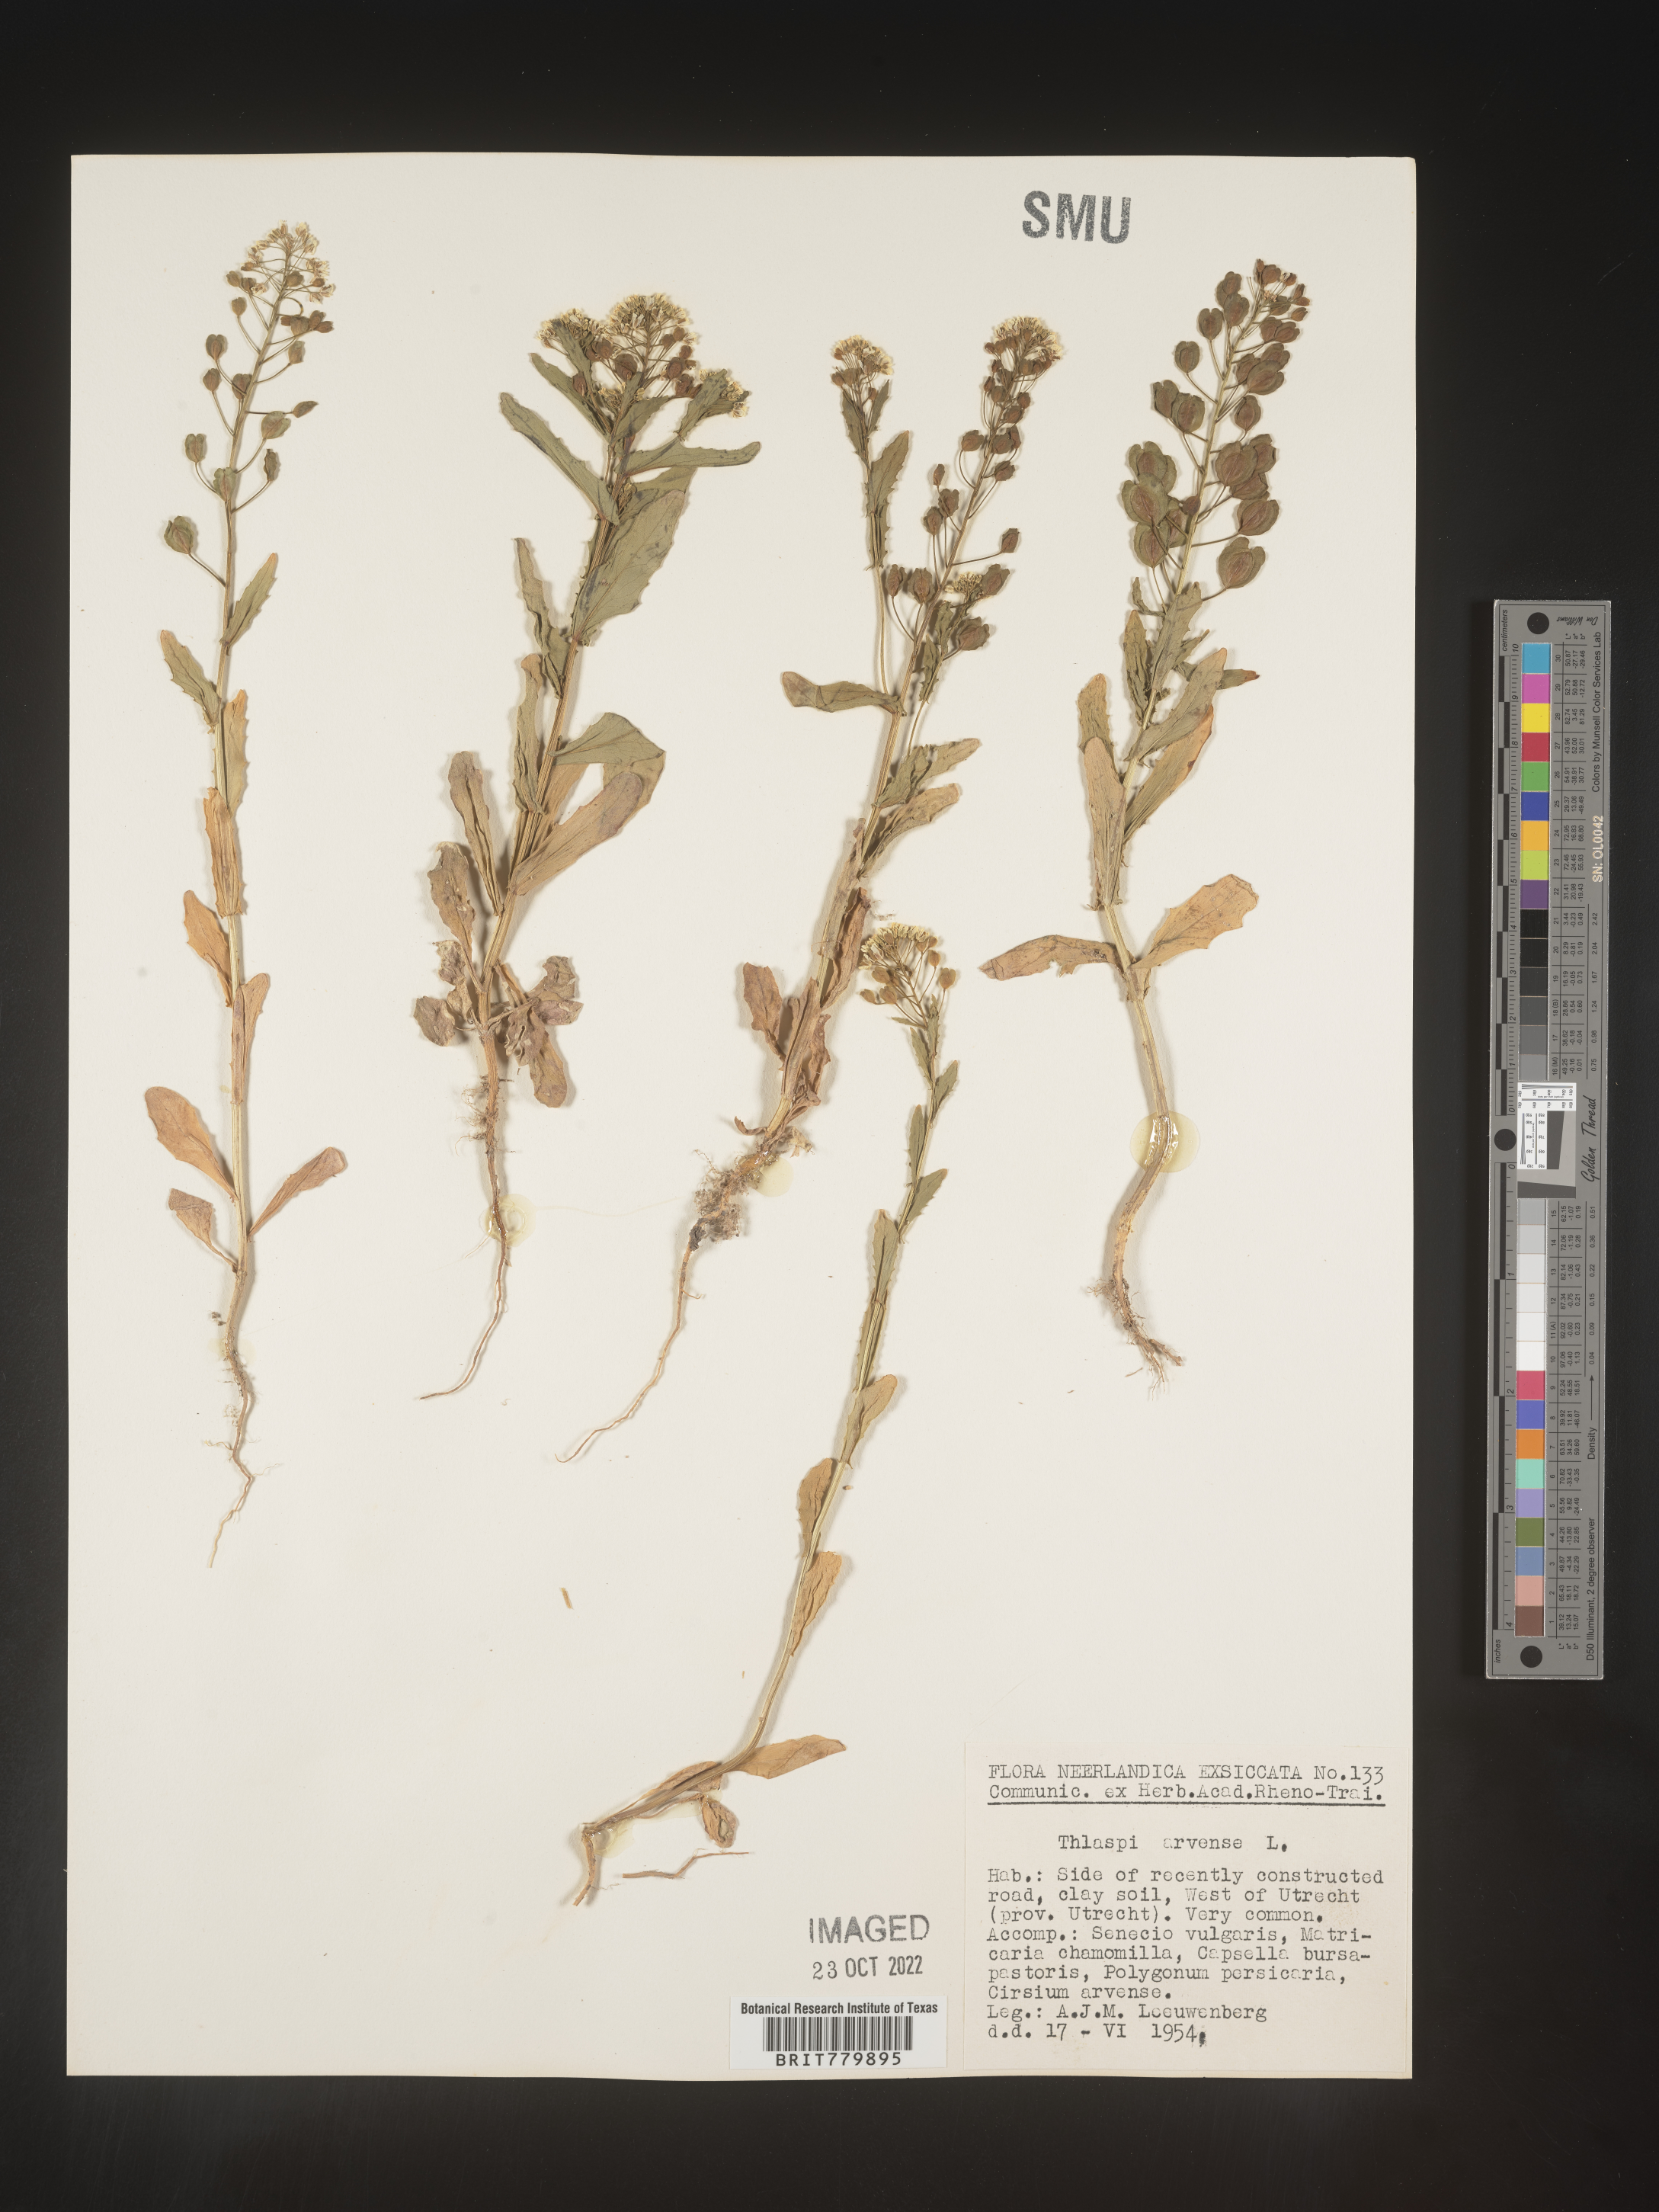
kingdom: Plantae
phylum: Tracheophyta
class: Magnoliopsida
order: Brassicales
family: Brassicaceae
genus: Thlaspi
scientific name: Thlaspi
